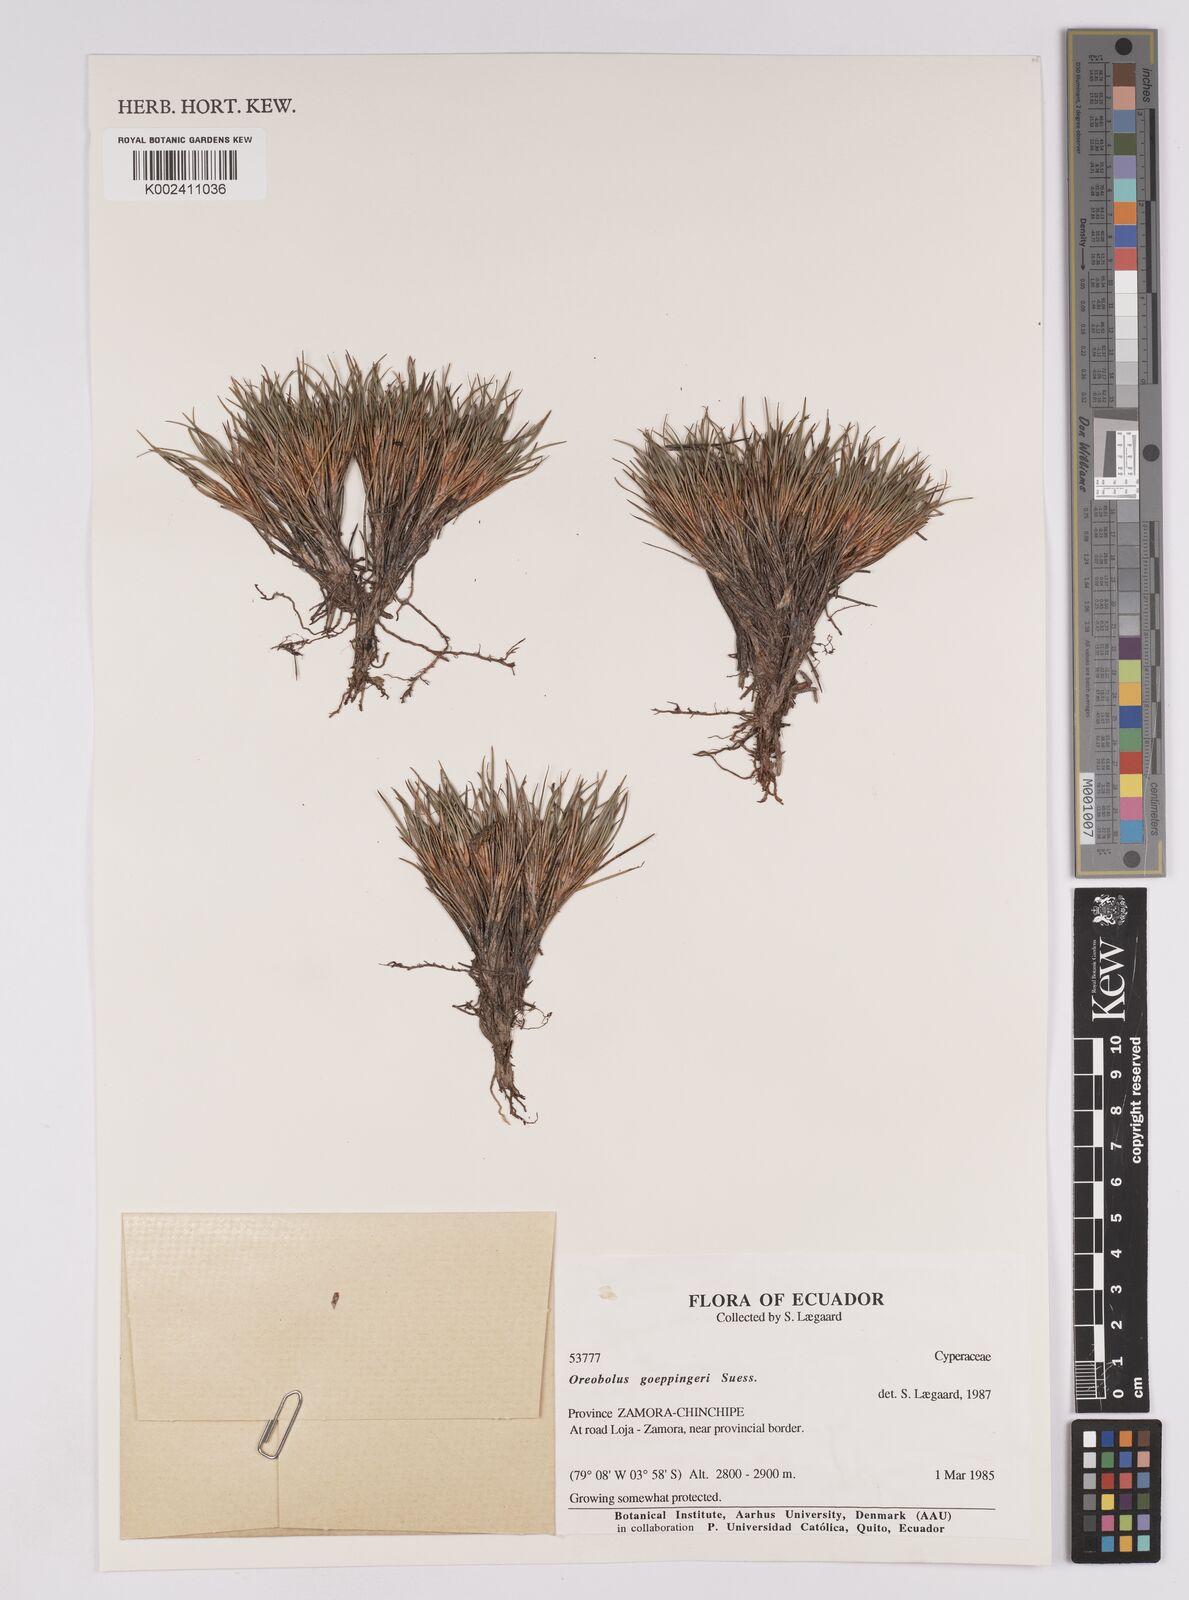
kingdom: Plantae
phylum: Tracheophyta
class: Liliopsida
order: Poales
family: Cyperaceae
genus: Oreobolus
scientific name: Oreobolus goeppingeri
